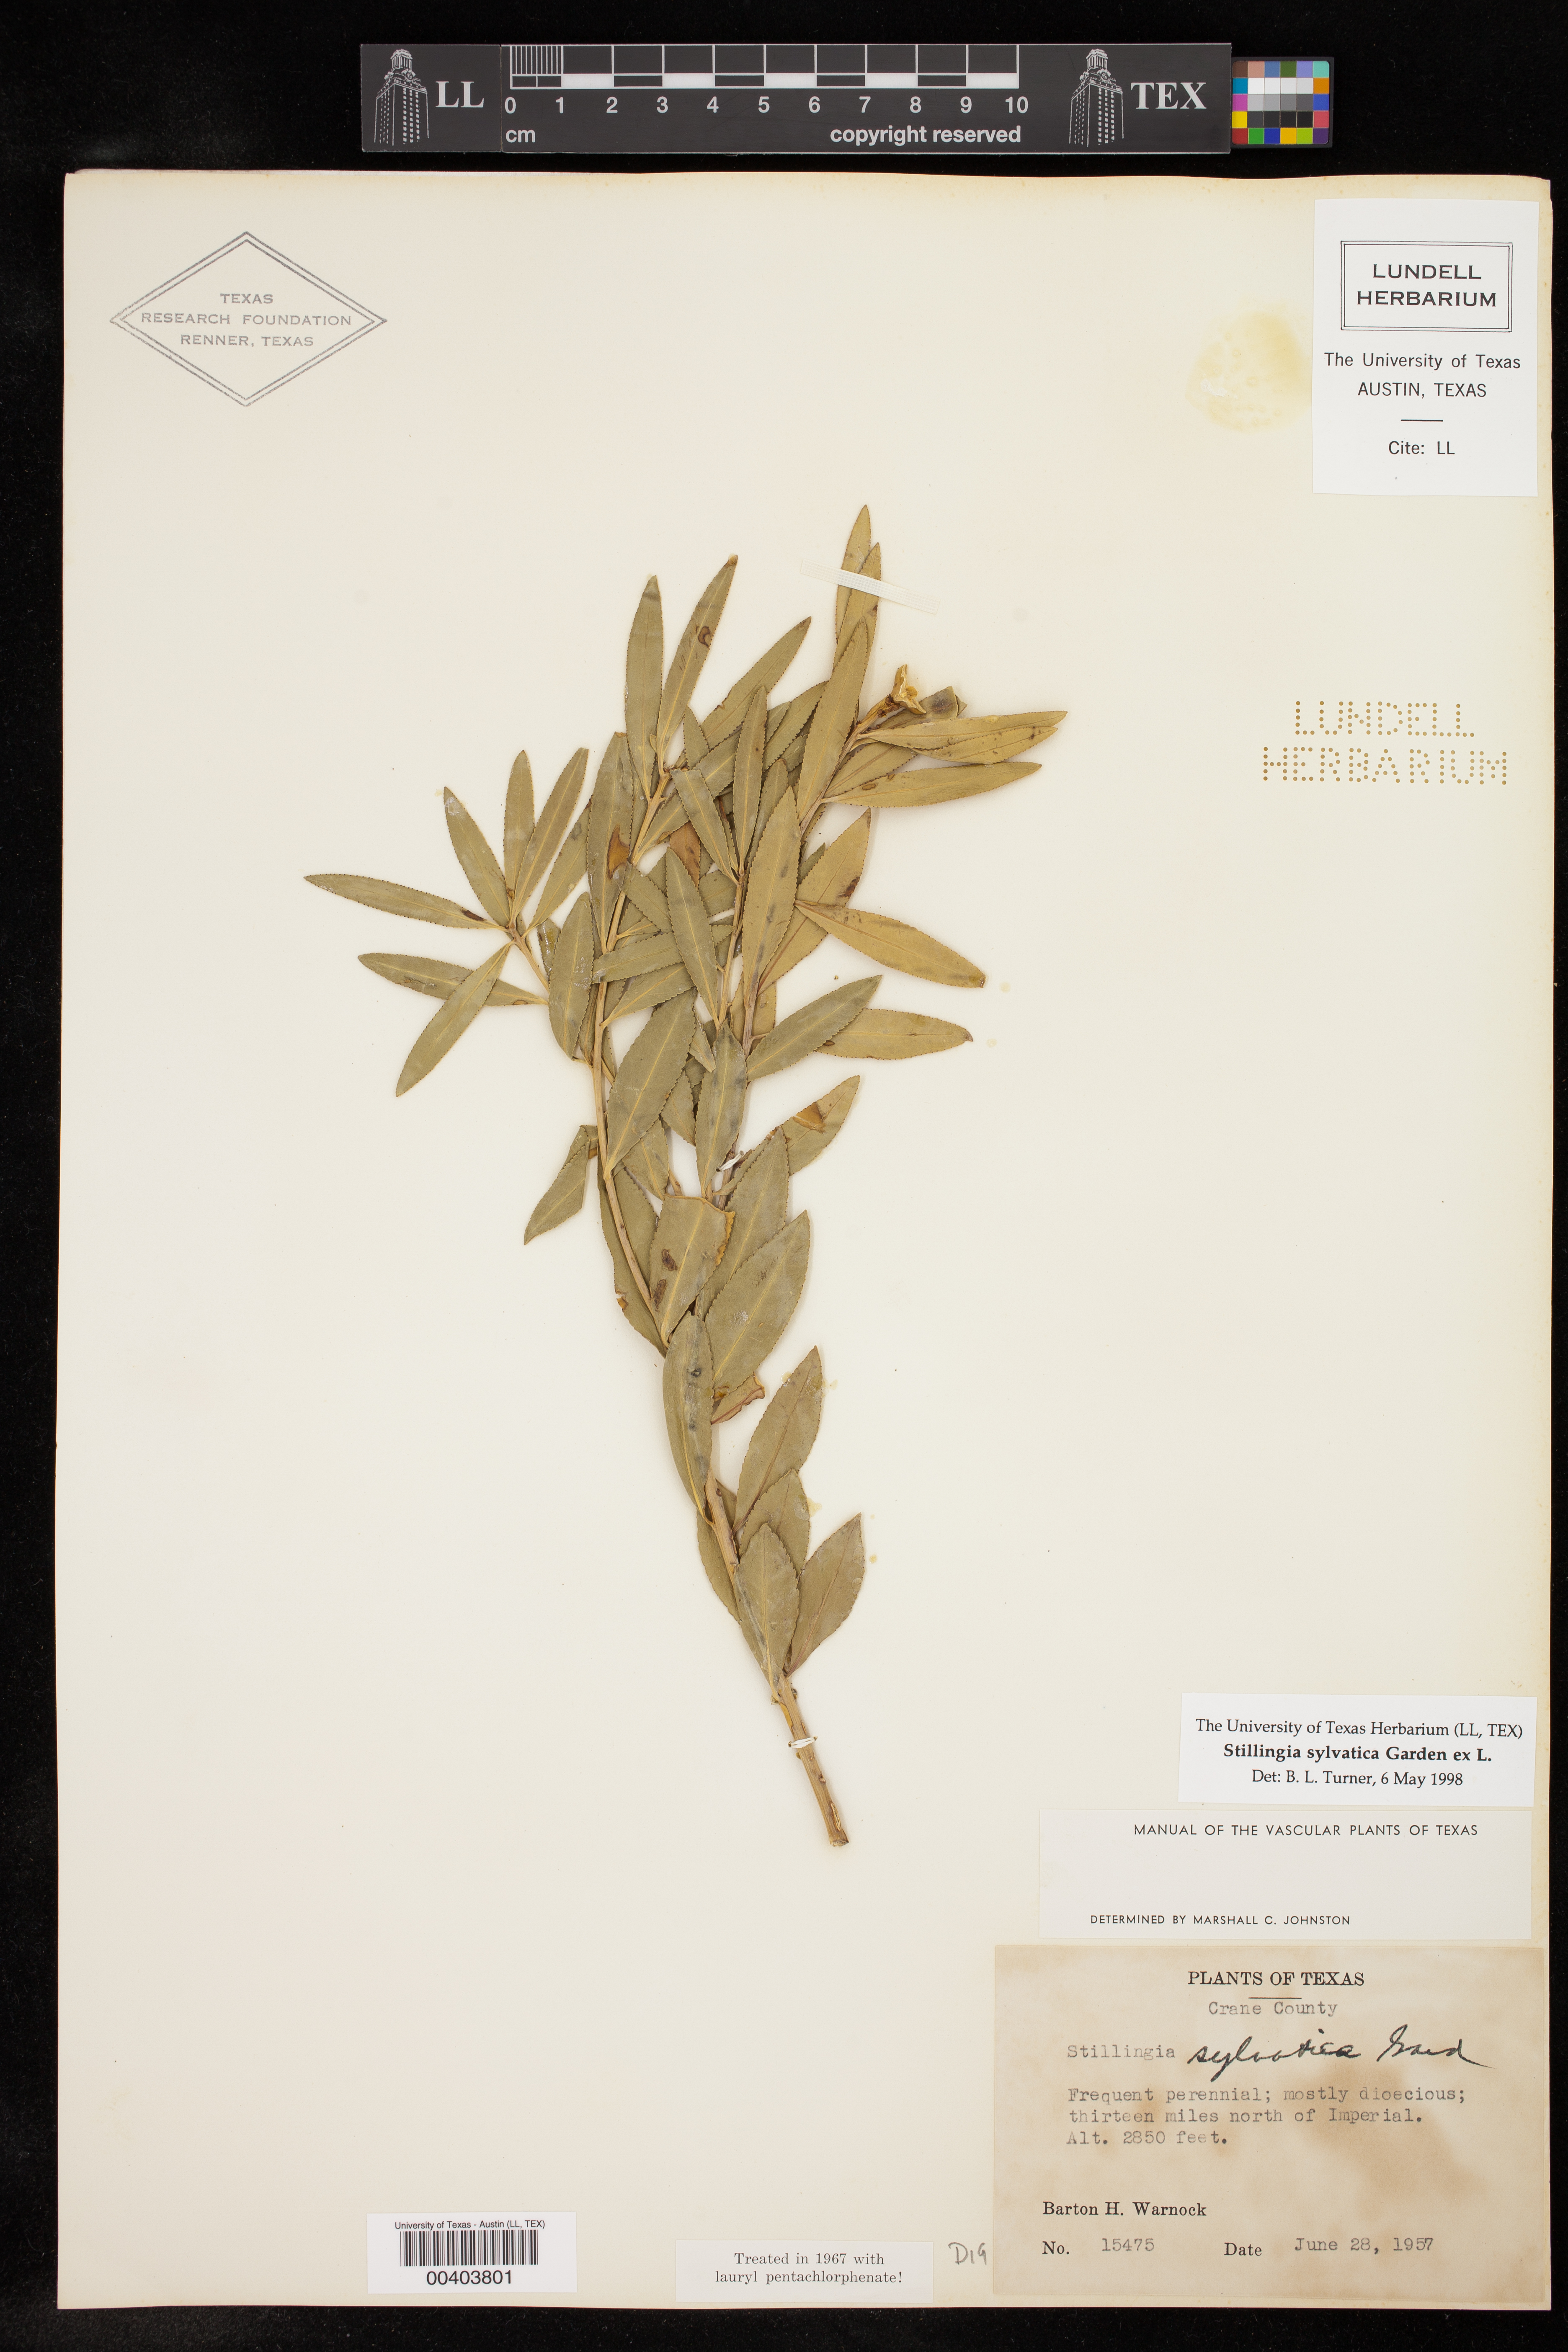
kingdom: Plantae
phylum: Tracheophyta
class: Magnoliopsida
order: Malpighiales
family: Euphorbiaceae
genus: Stillingia
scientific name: Stillingia sylvatica
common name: Queen's-delight
